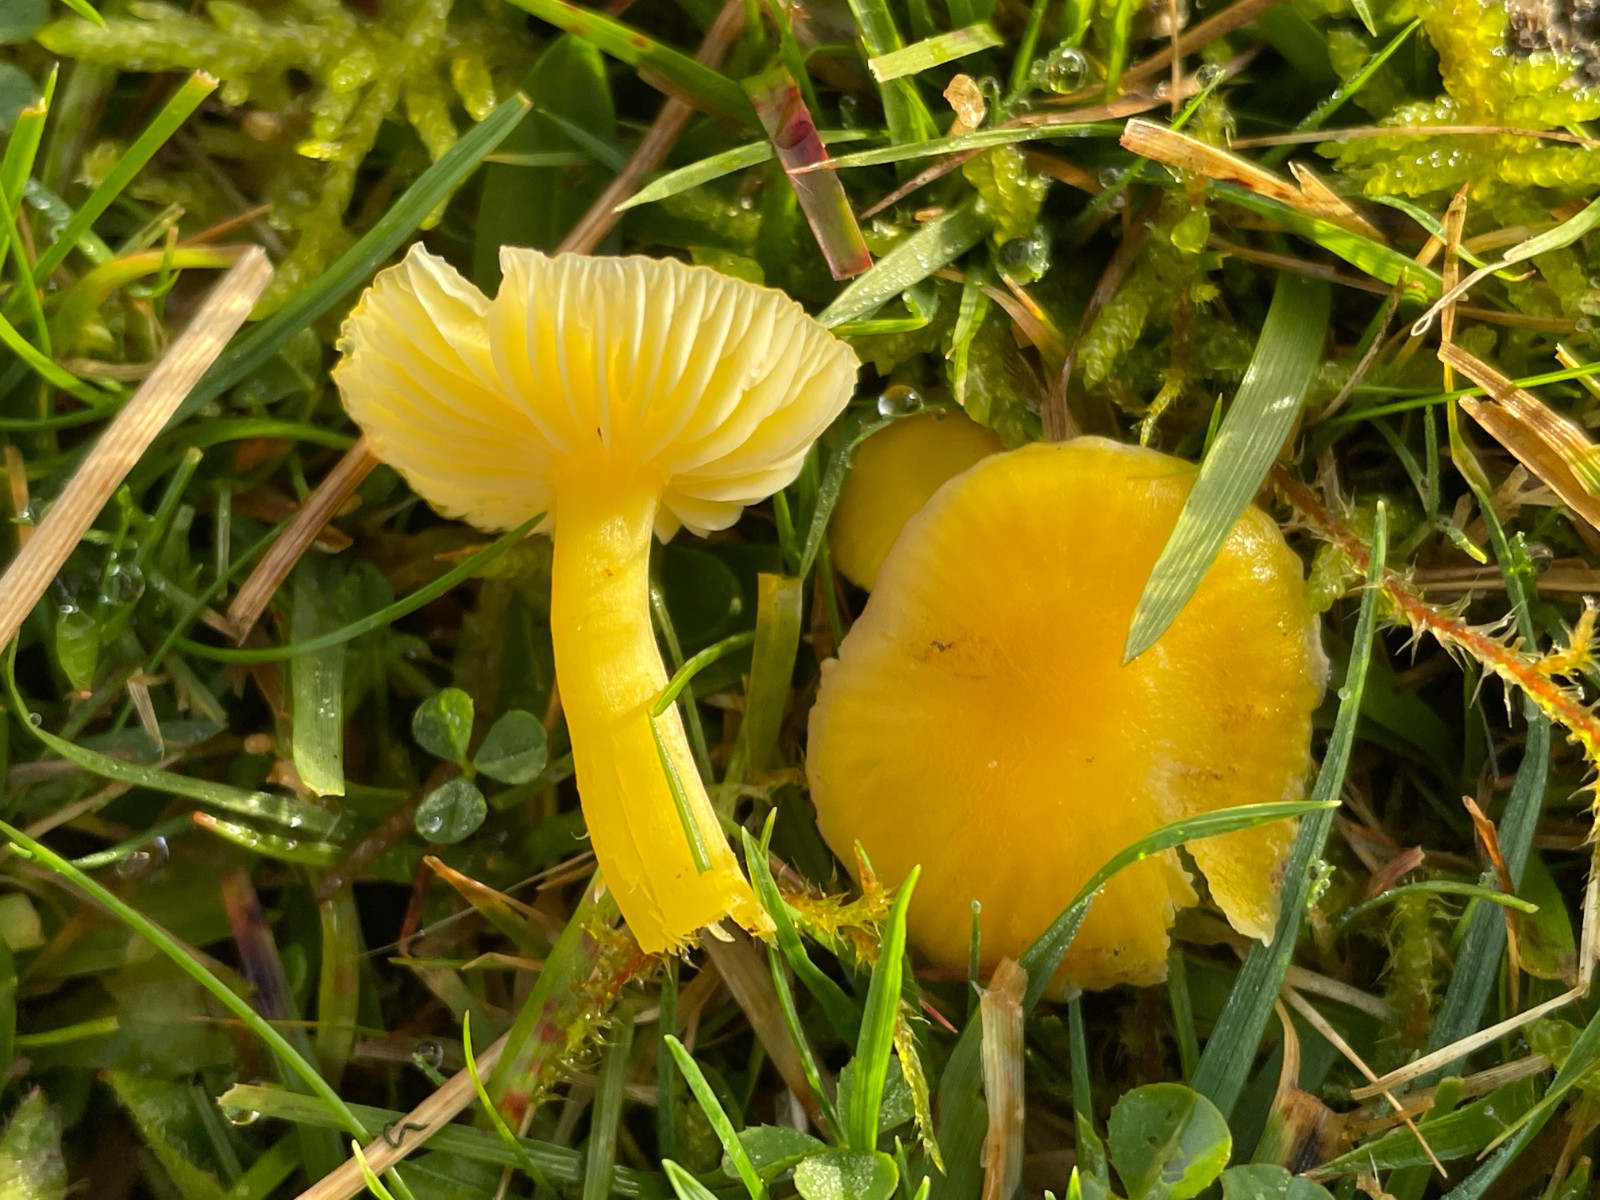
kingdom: Fungi
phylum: Basidiomycota
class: Agaricomycetes
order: Agaricales
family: Hygrophoraceae
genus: Hygrocybe
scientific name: Hygrocybe ceracea
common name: voksgul vokshat
